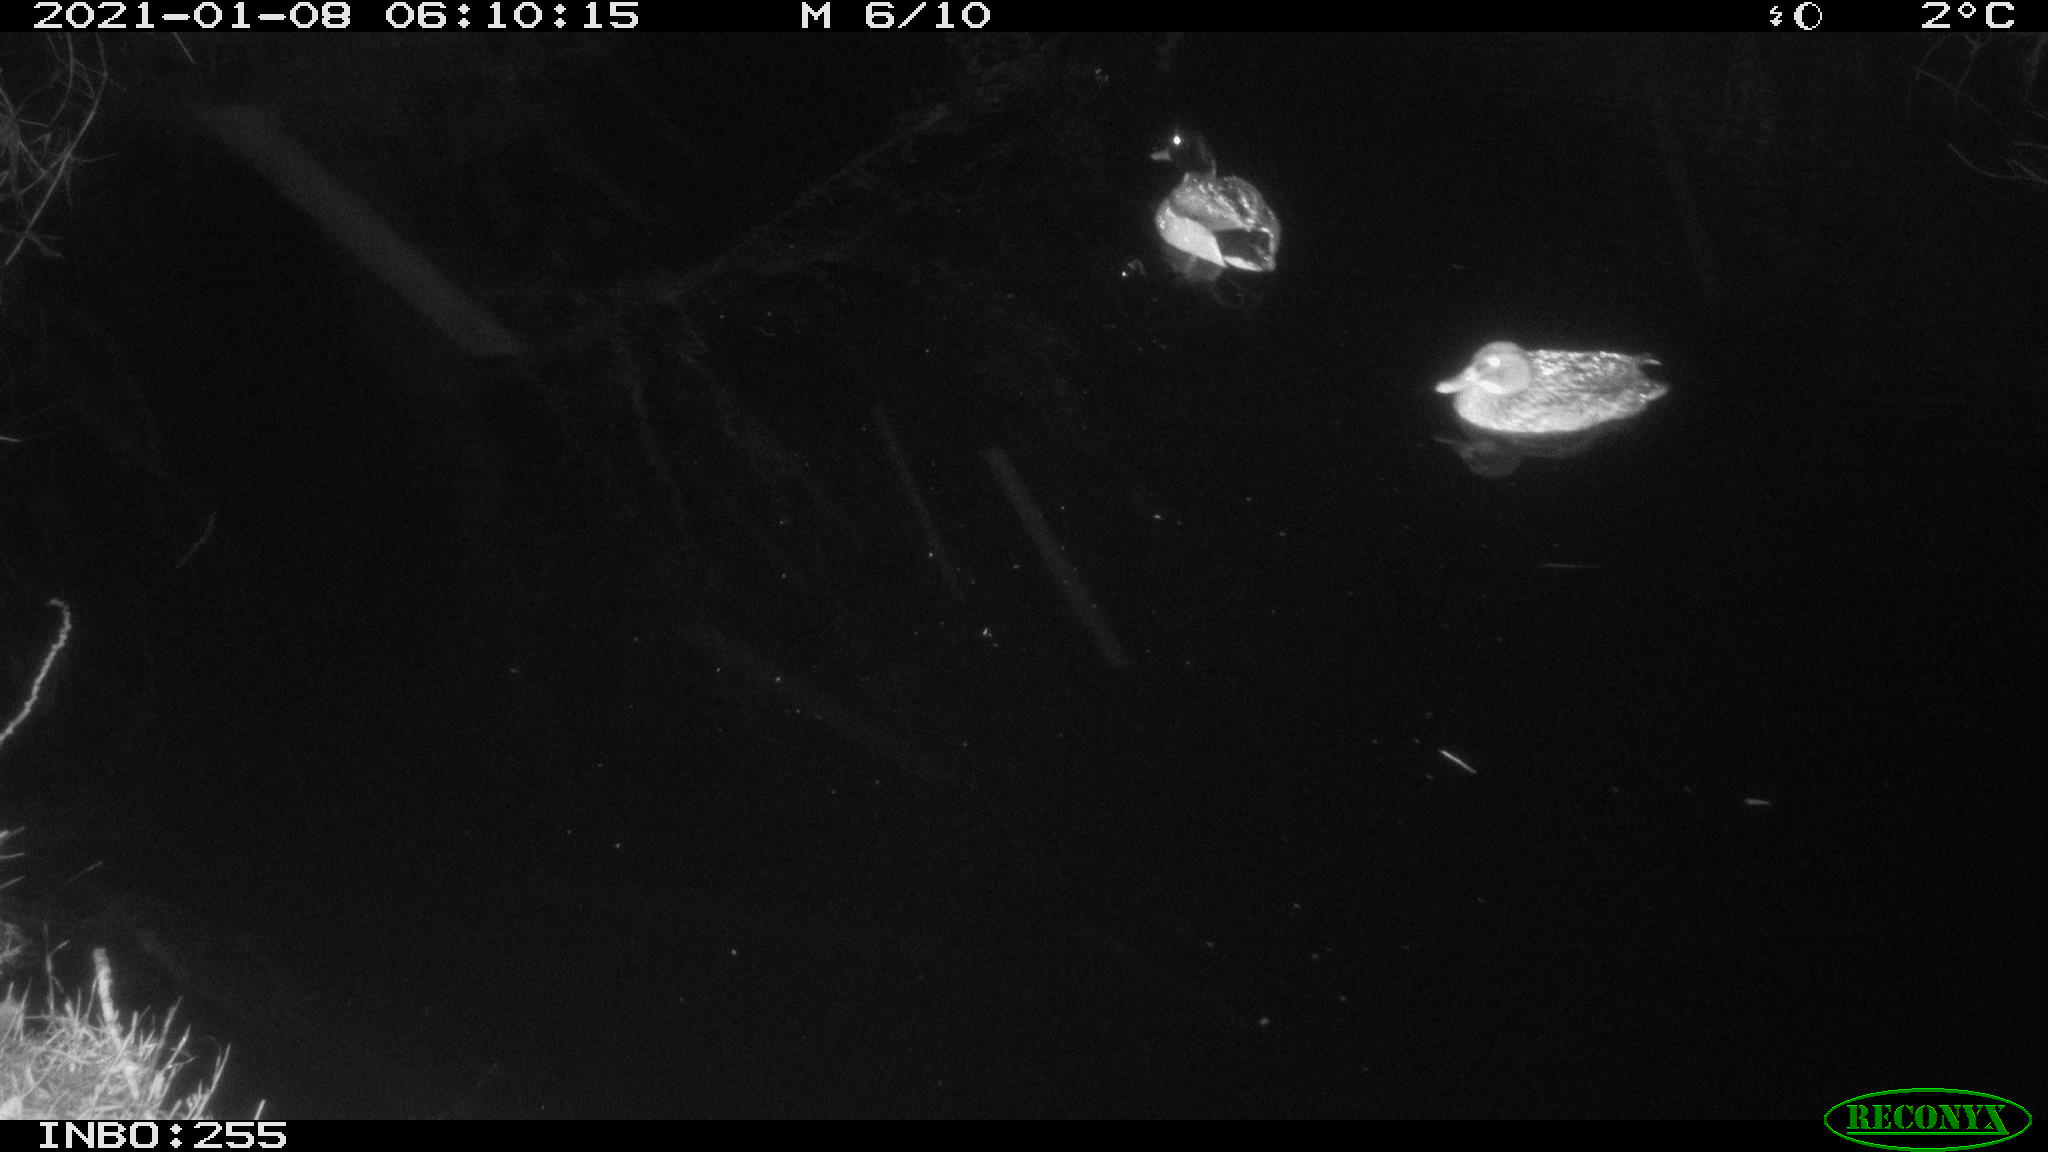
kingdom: Animalia
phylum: Chordata
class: Aves
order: Anseriformes
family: Anatidae
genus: Anas
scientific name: Anas platyrhynchos
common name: Mallard
